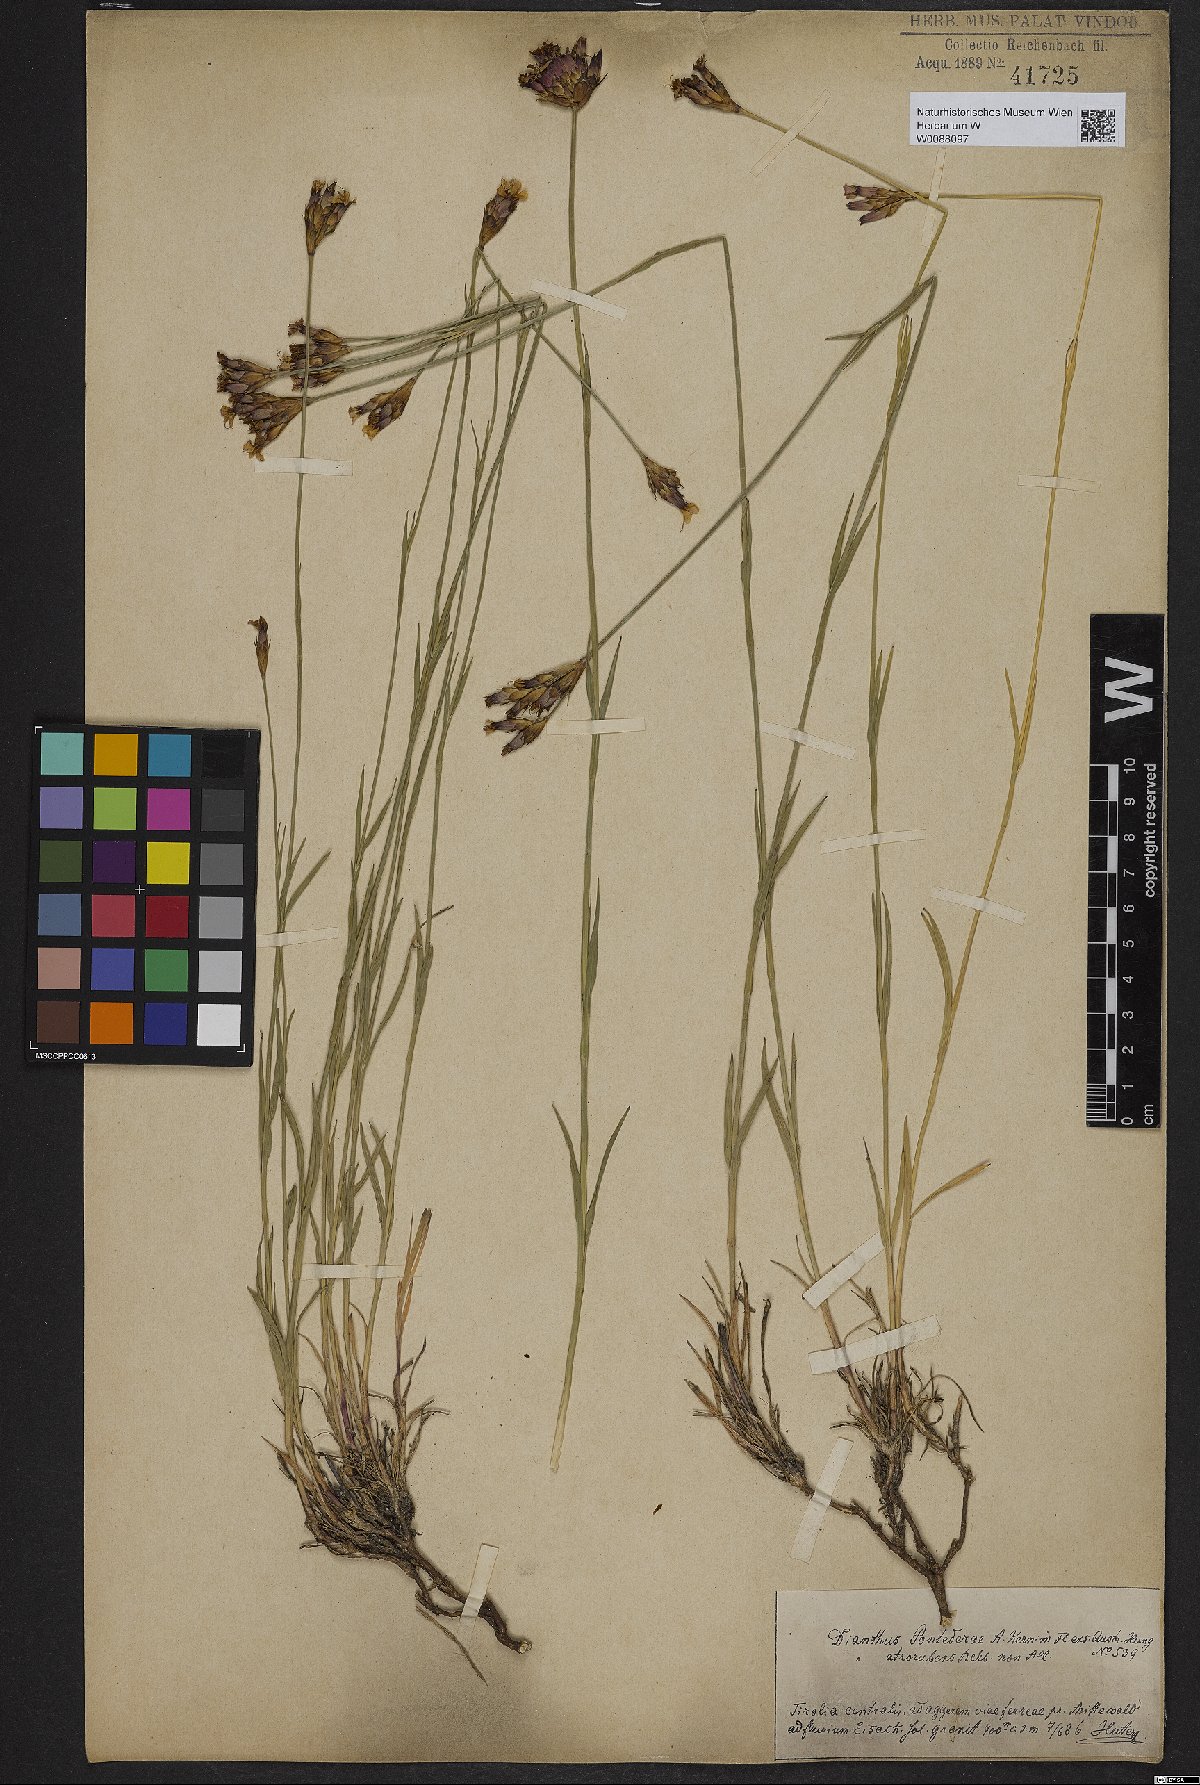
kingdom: Plantae
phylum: Tracheophyta
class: Magnoliopsida
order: Caryophyllales
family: Caryophyllaceae
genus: Dianthus
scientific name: Dianthus pontederae
